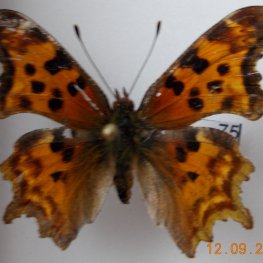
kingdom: Animalia
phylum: Arthropoda
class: Insecta
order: Lepidoptera
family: Nymphalidae
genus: Polygonia
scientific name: Polygonia satyrus
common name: Satyr Comma
